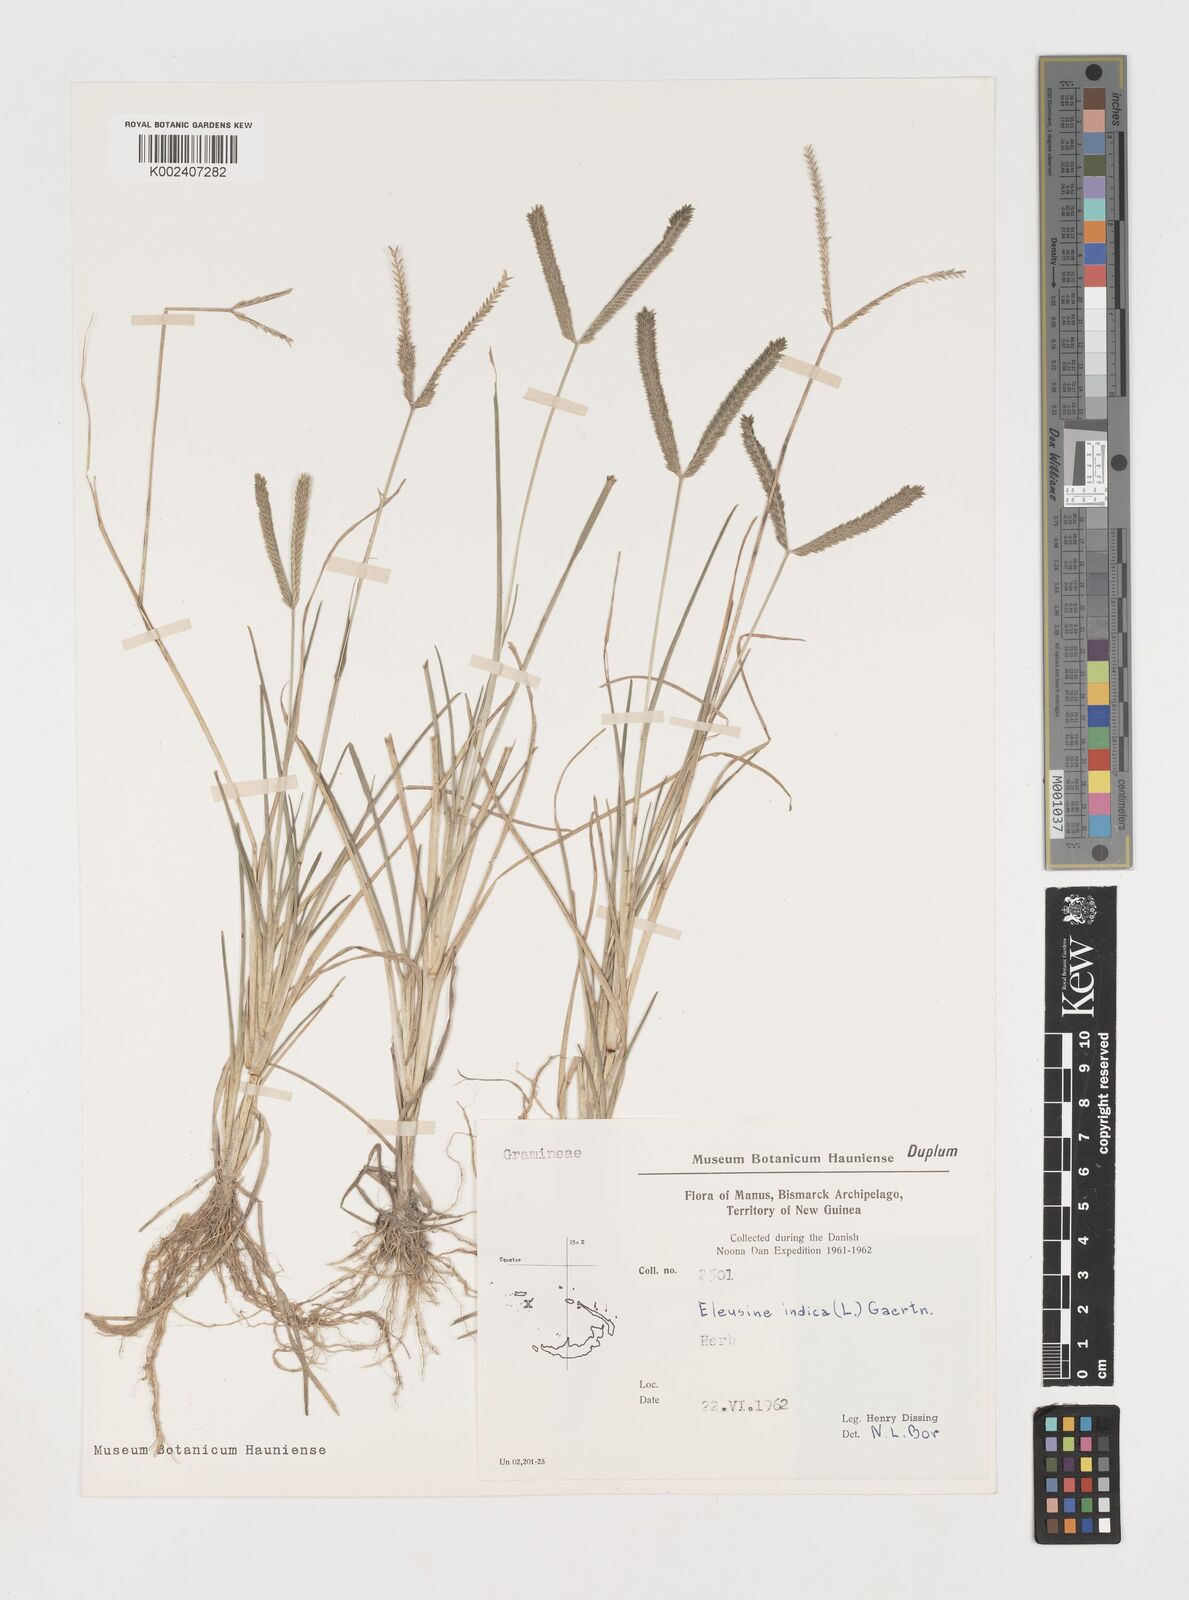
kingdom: Plantae
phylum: Tracheophyta
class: Liliopsida
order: Poales
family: Poaceae
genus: Eleusine
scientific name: Eleusine indica
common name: Yard-grass
